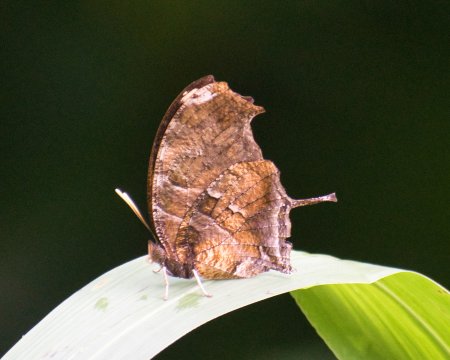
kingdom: Animalia
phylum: Arthropoda
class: Insecta
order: Lepidoptera
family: Nymphalidae
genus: Consul
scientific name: Consul fabius
